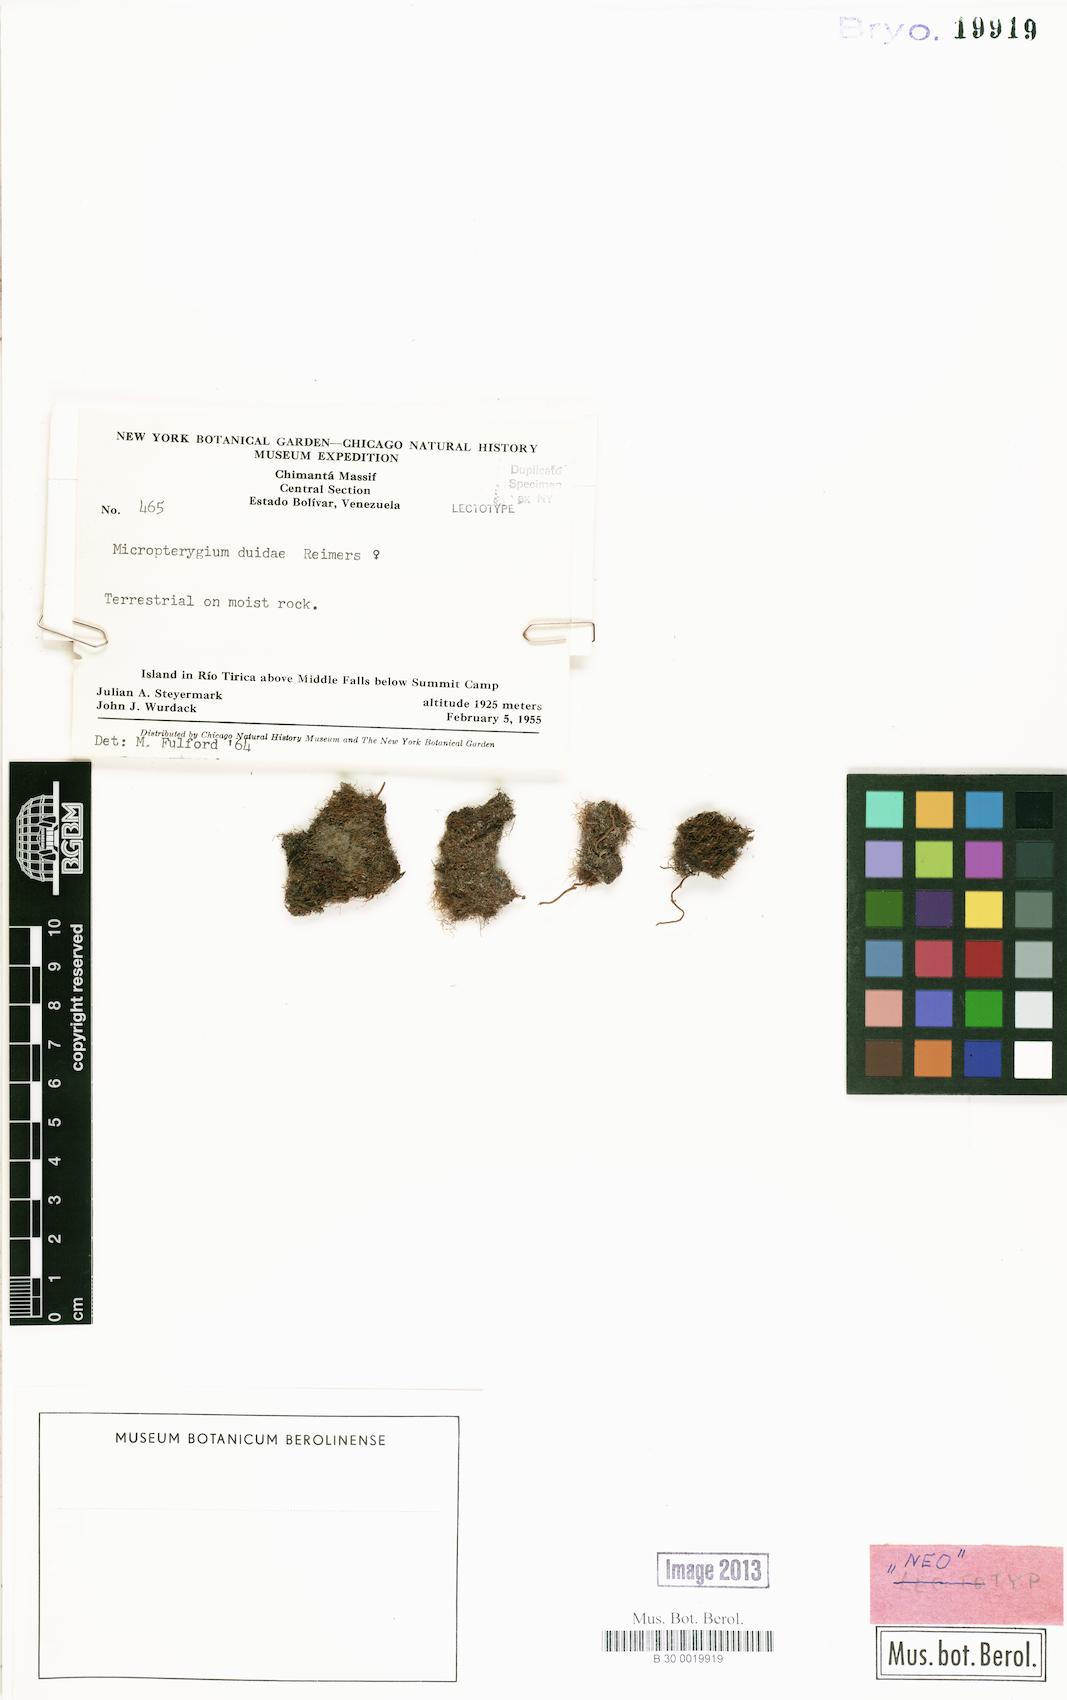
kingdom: Plantae
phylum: Marchantiophyta
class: Jungermanniopsida
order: Jungermanniales
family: Lepidoziaceae
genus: Micropterygium
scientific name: Micropterygium duidae
